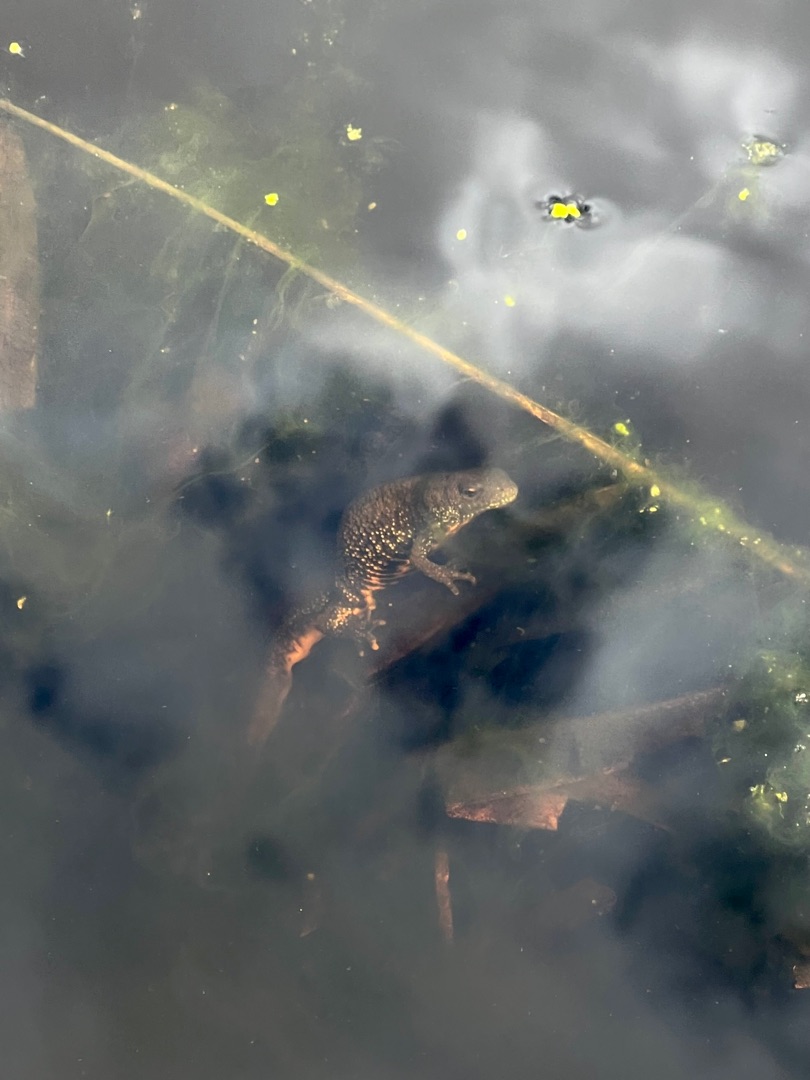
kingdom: Animalia
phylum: Chordata
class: Amphibia
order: Caudata
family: Salamandridae
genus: Triturus
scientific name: Triturus cristatus
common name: Stor vandsalamander
